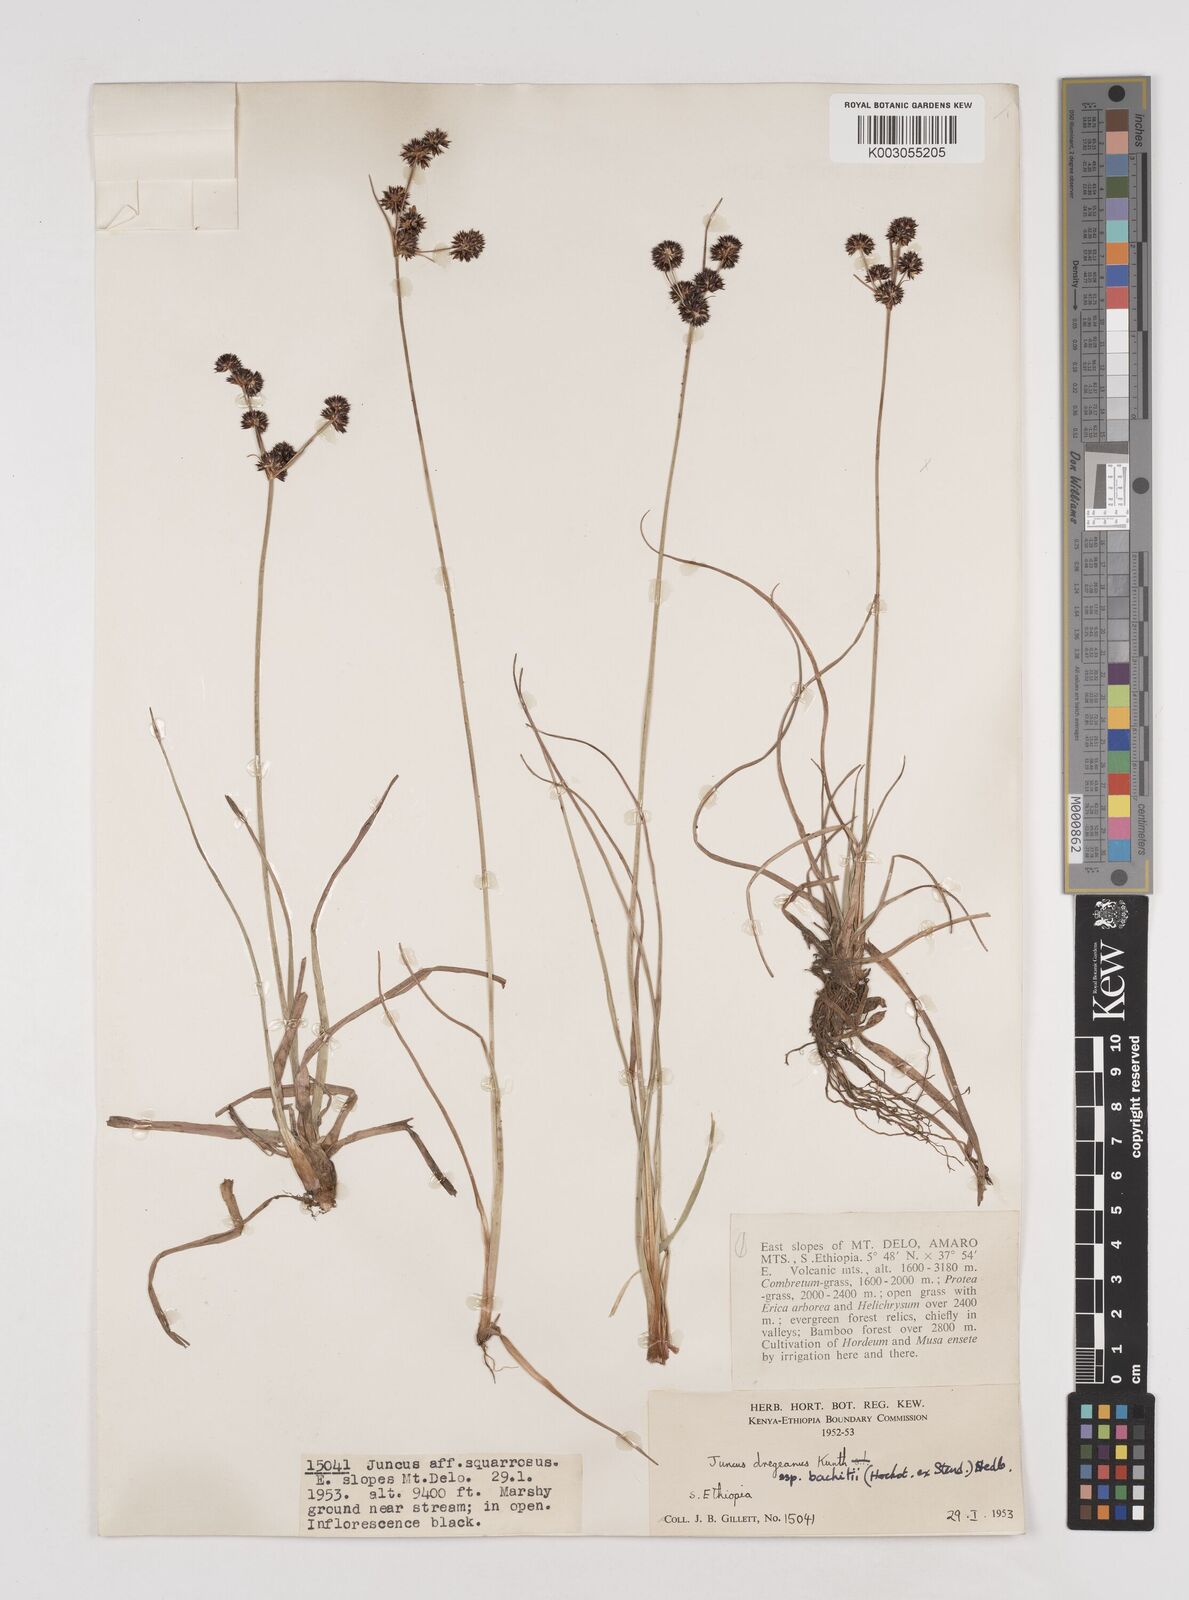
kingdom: Plantae
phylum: Tracheophyta
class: Liliopsida
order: Poales
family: Juncaceae
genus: Juncus
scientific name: Juncus dregeanus
